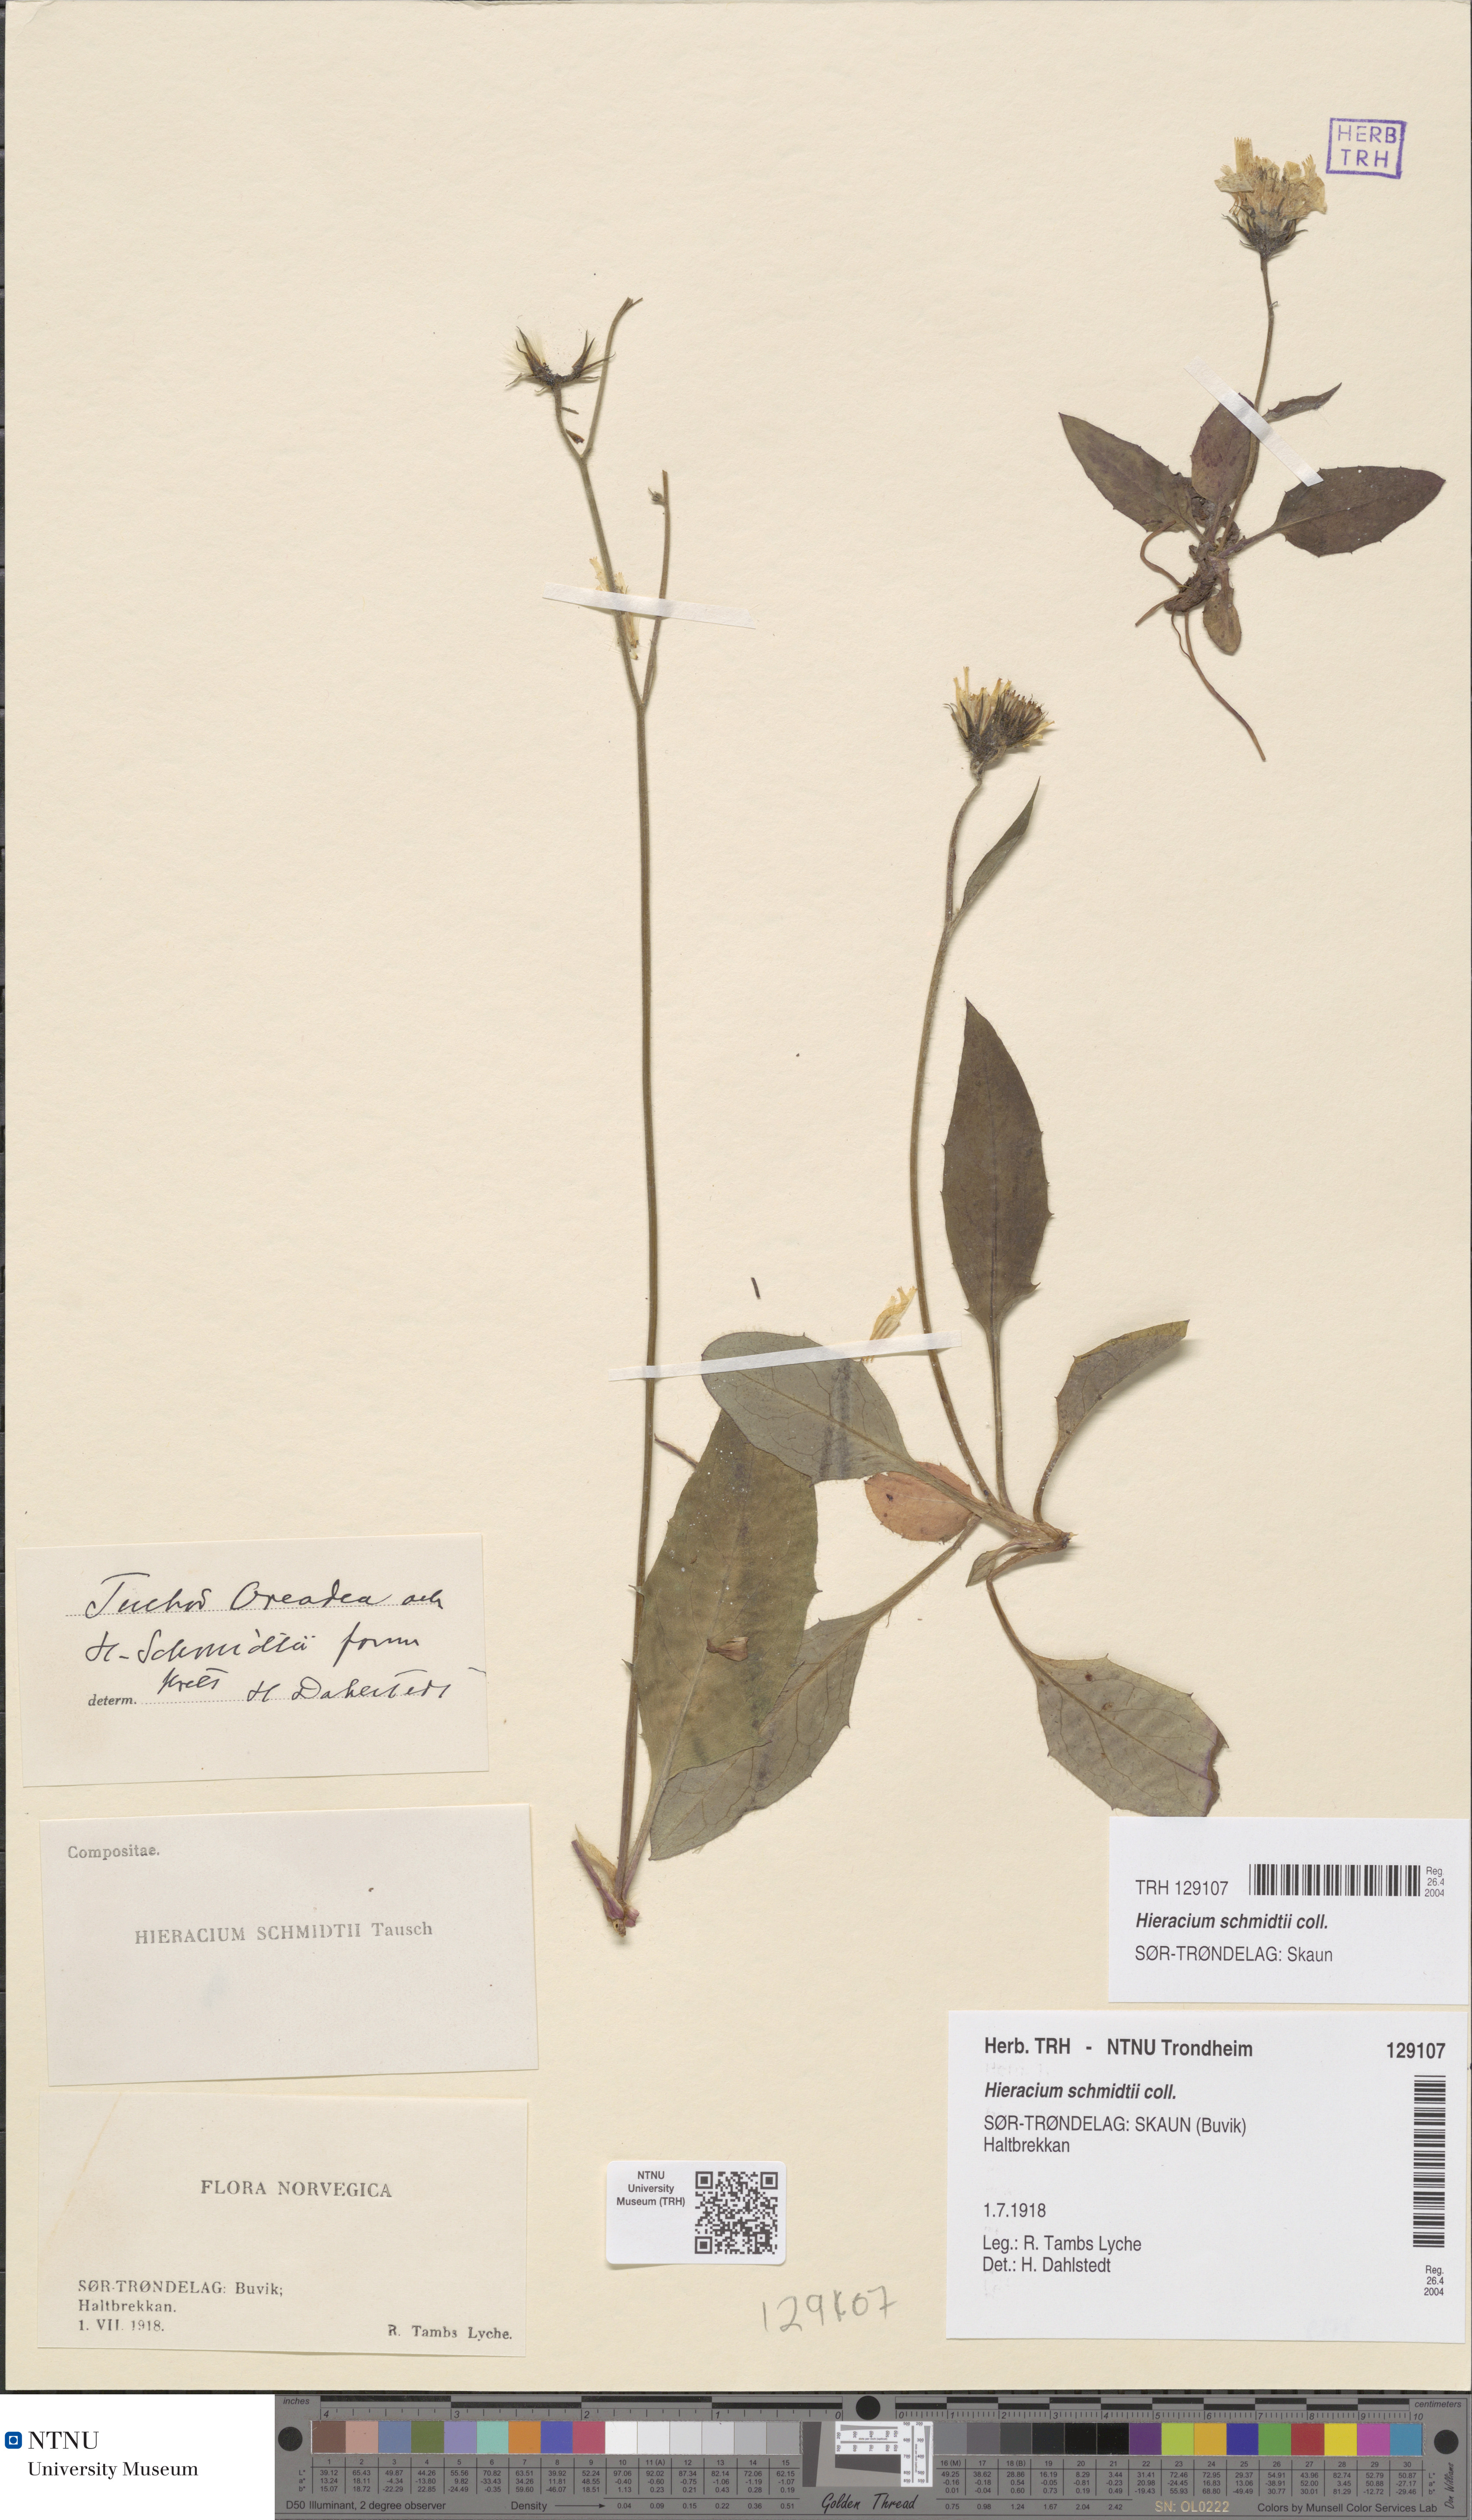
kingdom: Plantae
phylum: Tracheophyta
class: Magnoliopsida
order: Asterales
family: Asteraceae
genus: Hieracium
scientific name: Hieracium schmidtii
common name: Schmidt's hawkweed
